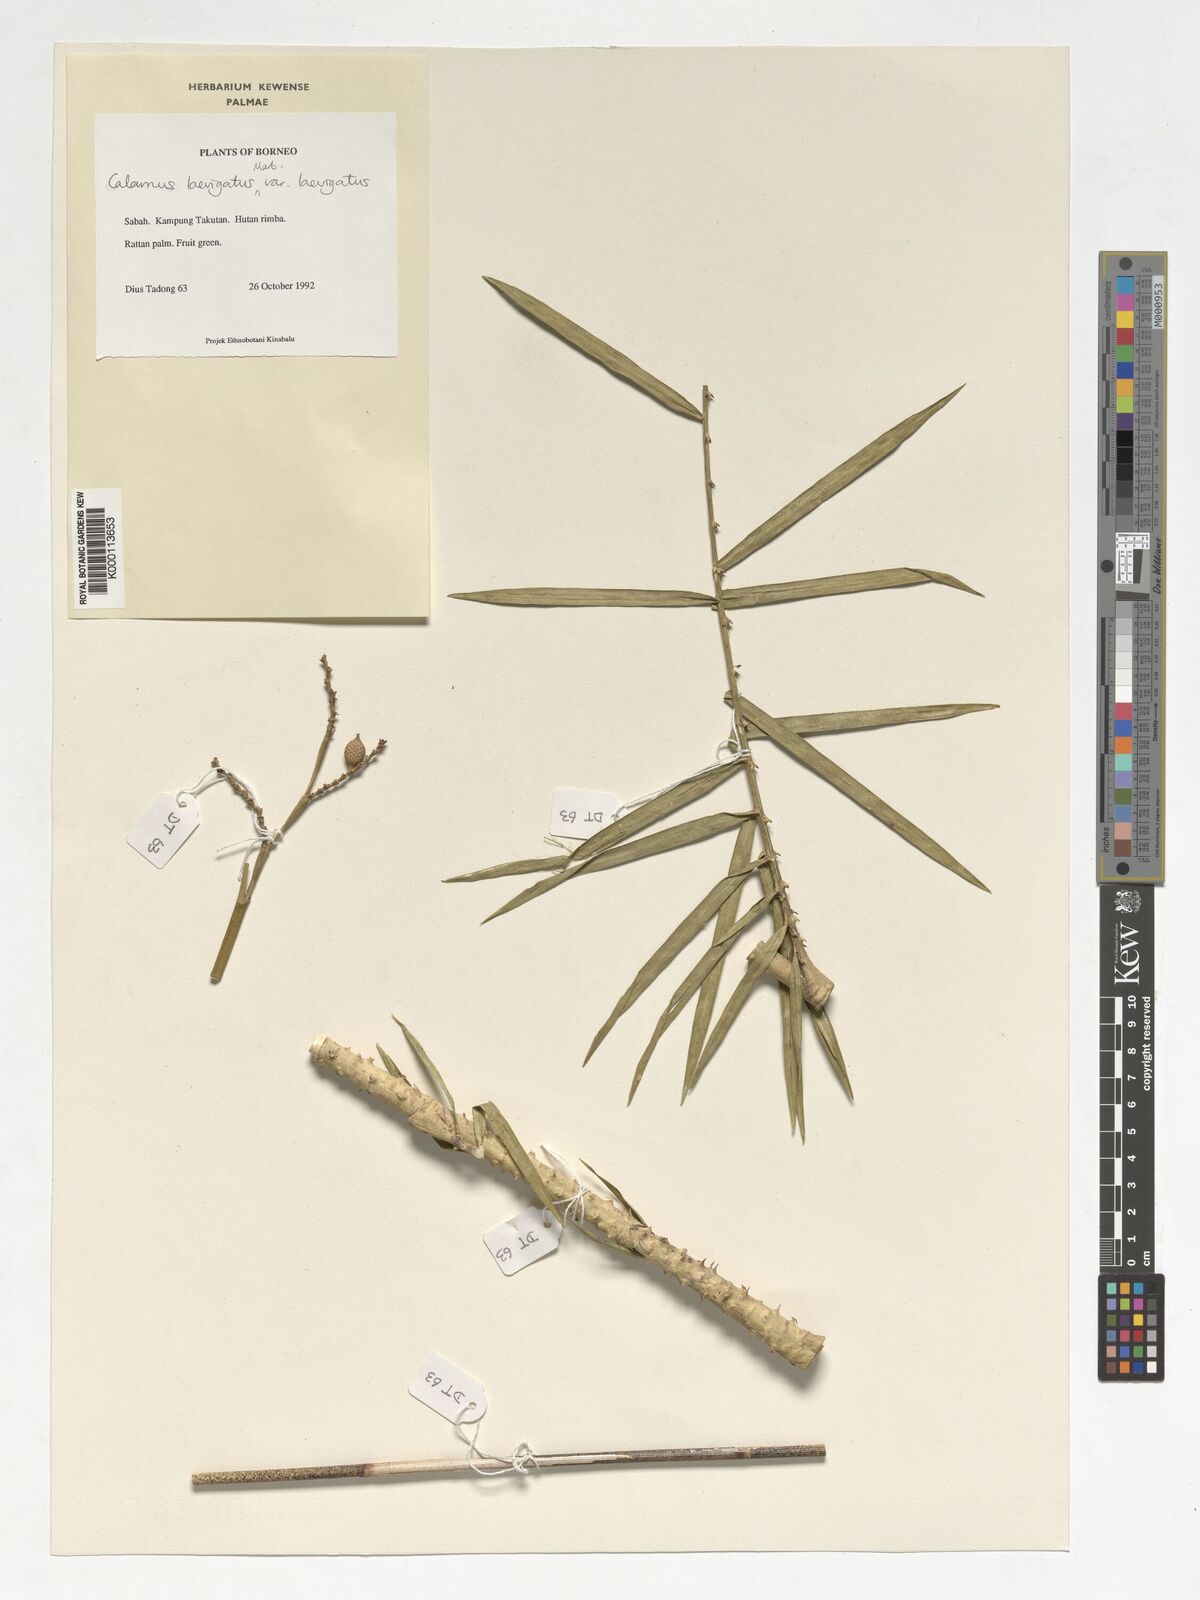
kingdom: Plantae
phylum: Tracheophyta
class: Liliopsida
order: Arecales
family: Arecaceae
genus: Calamus
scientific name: Calamus
